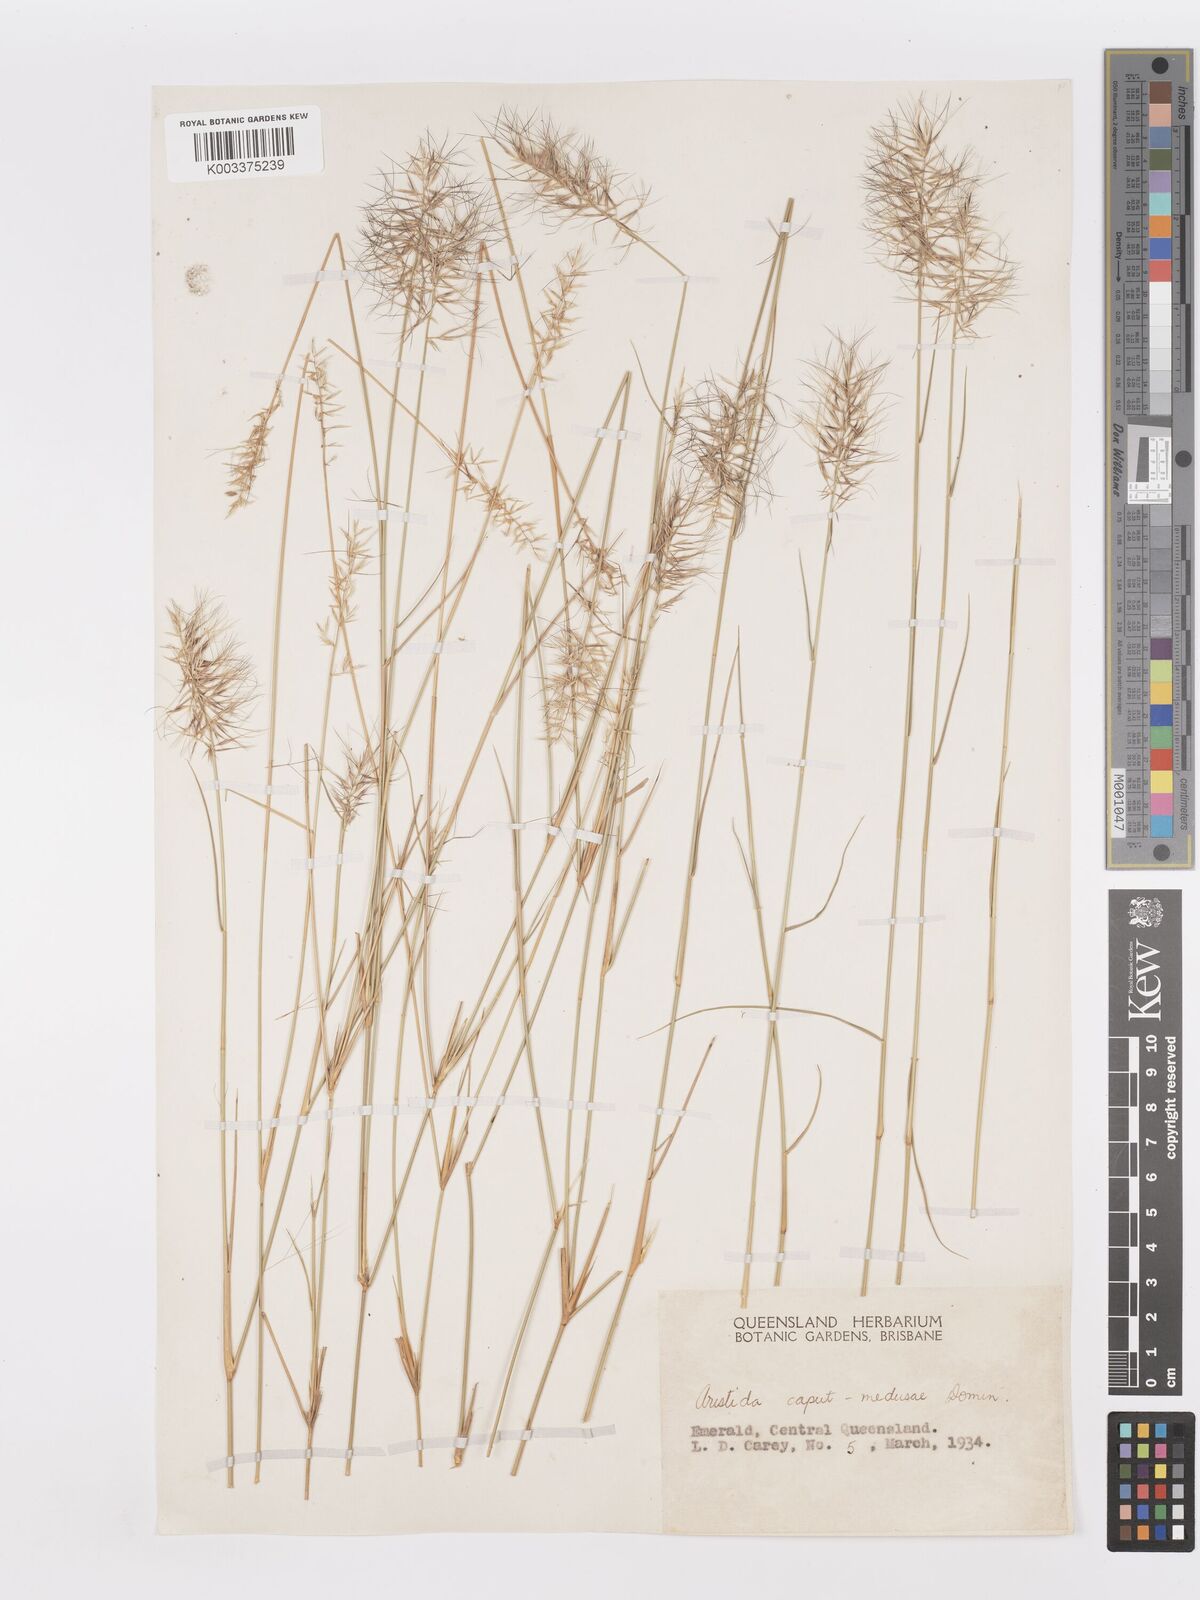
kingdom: Plantae
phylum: Tracheophyta
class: Liliopsida
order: Poales
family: Poaceae
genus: Aristida
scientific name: Aristida caput-medusae
